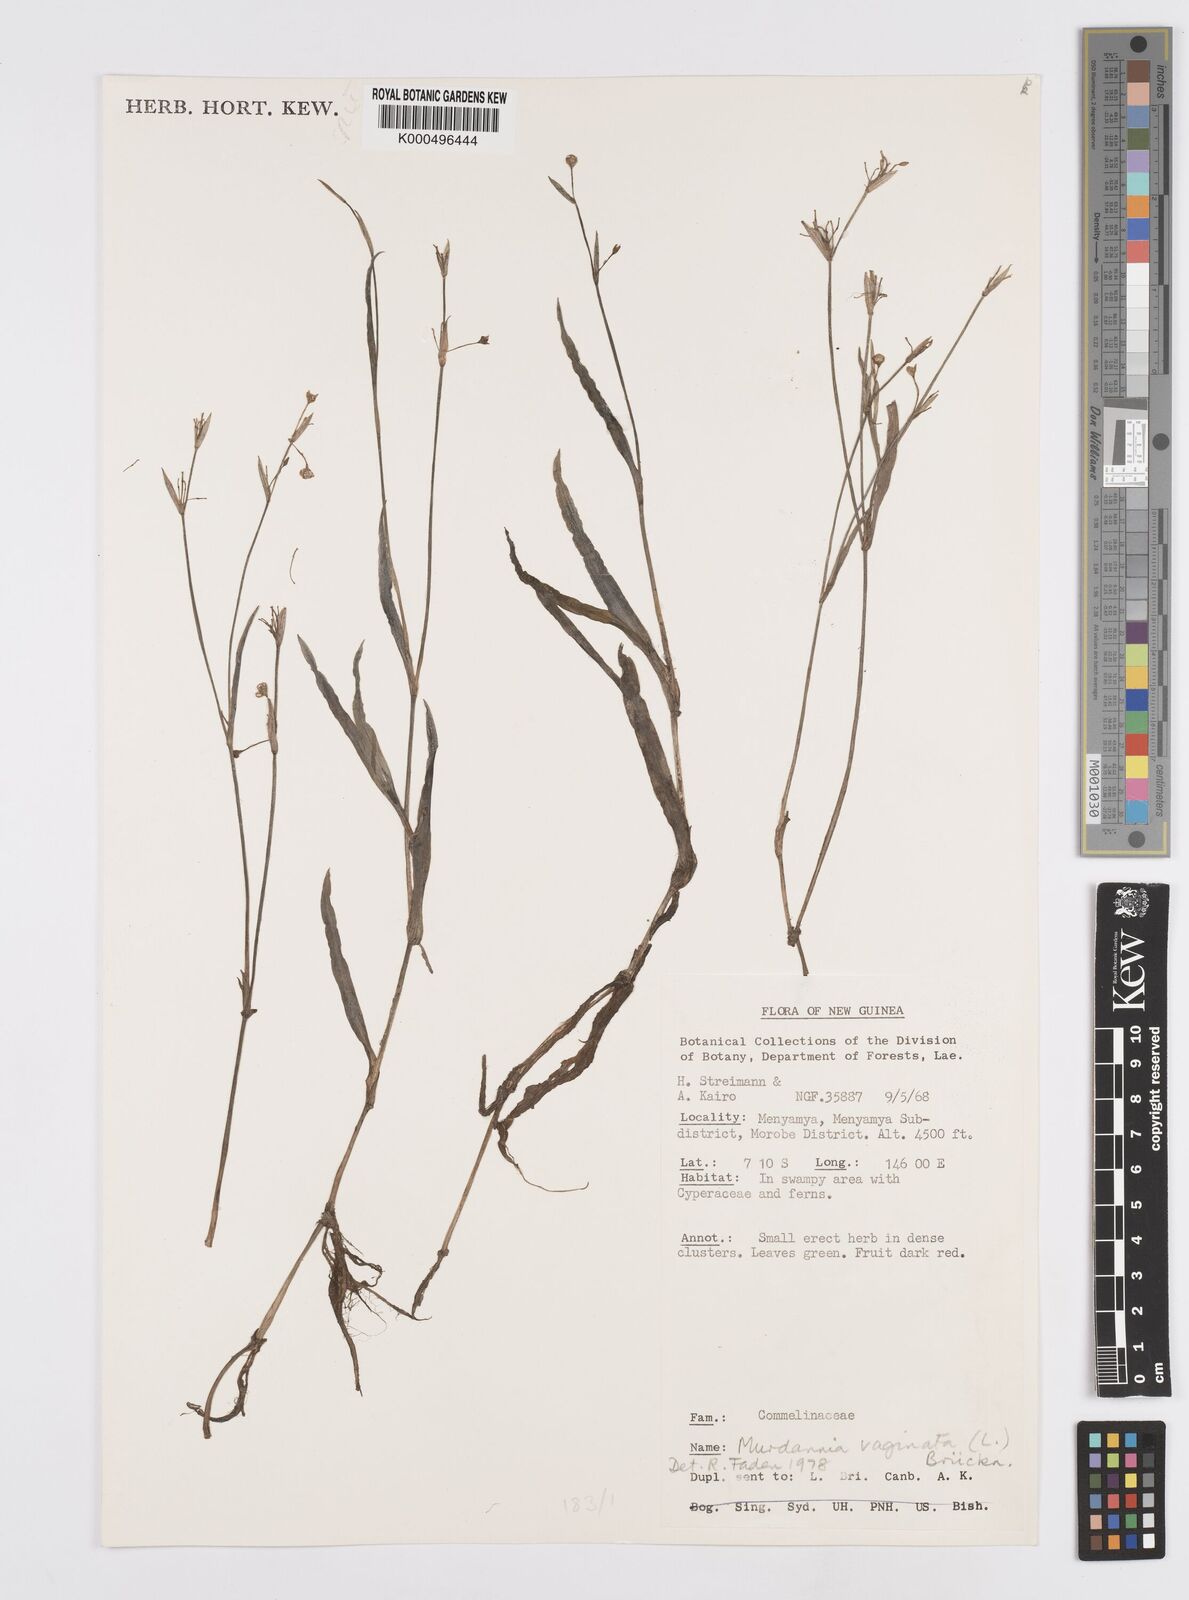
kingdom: Plantae
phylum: Tracheophyta
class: Liliopsida
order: Commelinales
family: Commelinaceae
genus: Murdannia
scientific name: Murdannia
